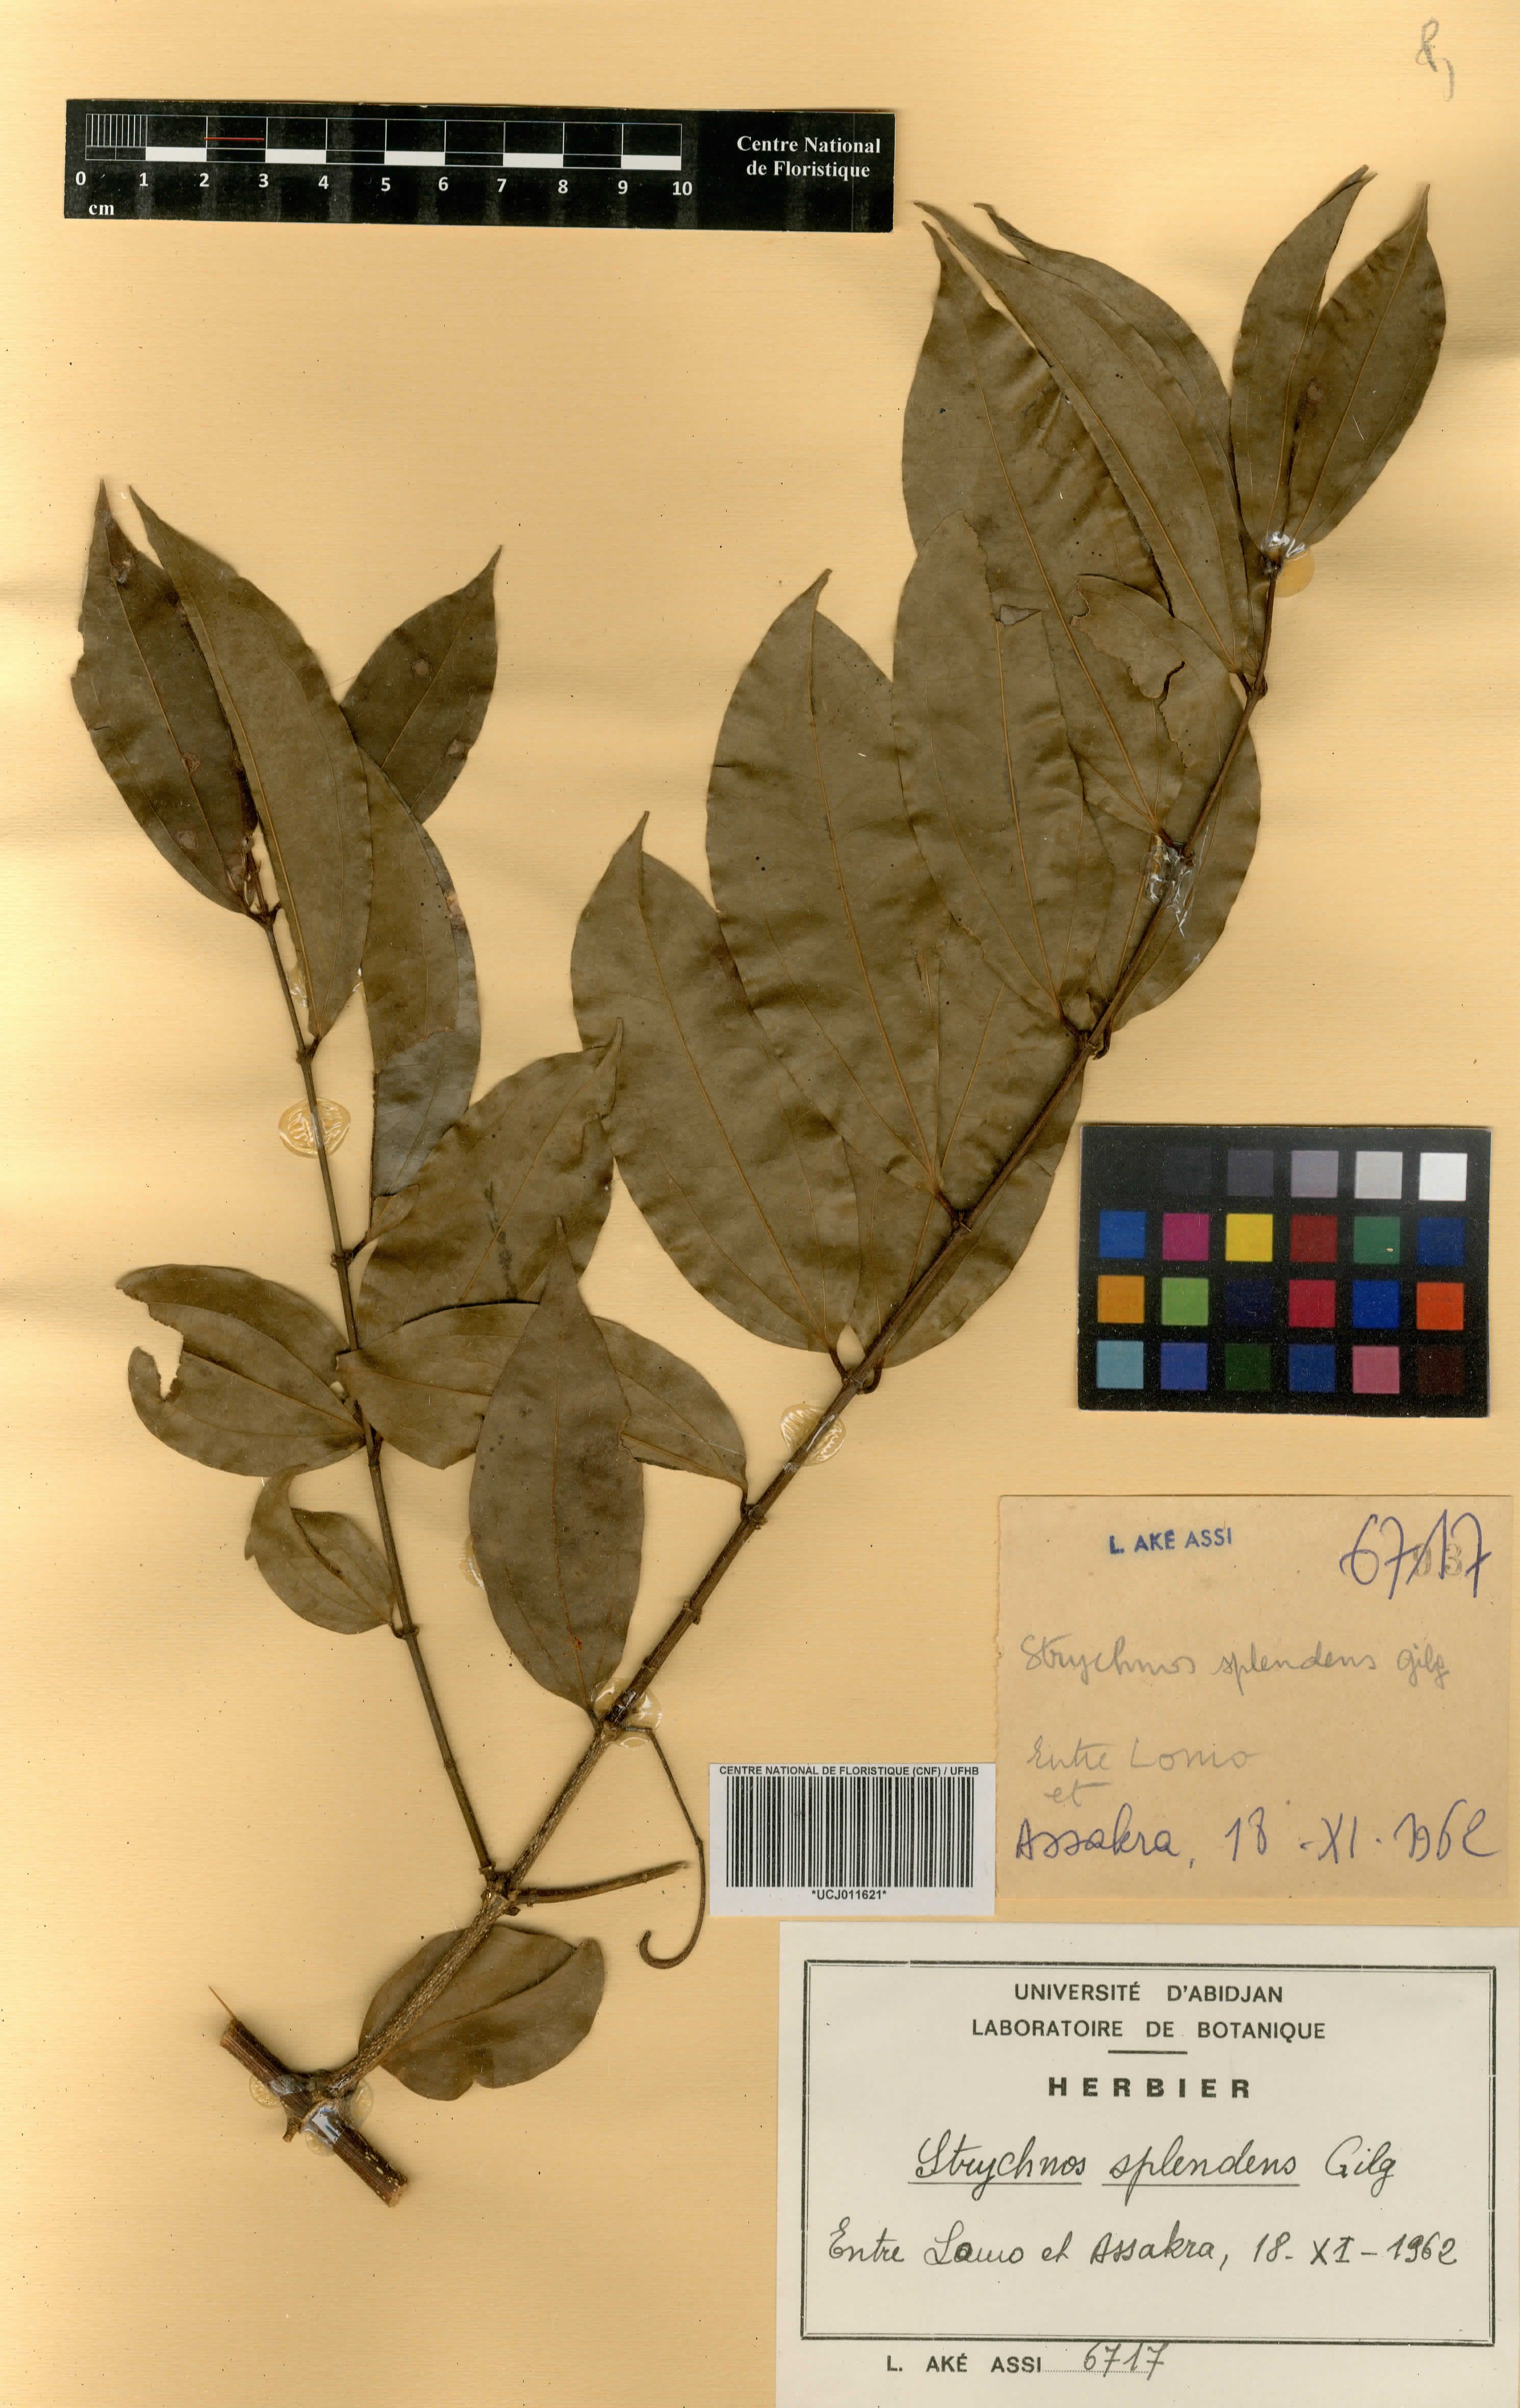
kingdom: Plantae
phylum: Tracheophyta
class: Magnoliopsida
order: Gentianales
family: Loganiaceae
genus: Strychnos
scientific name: Strychnos splendens
